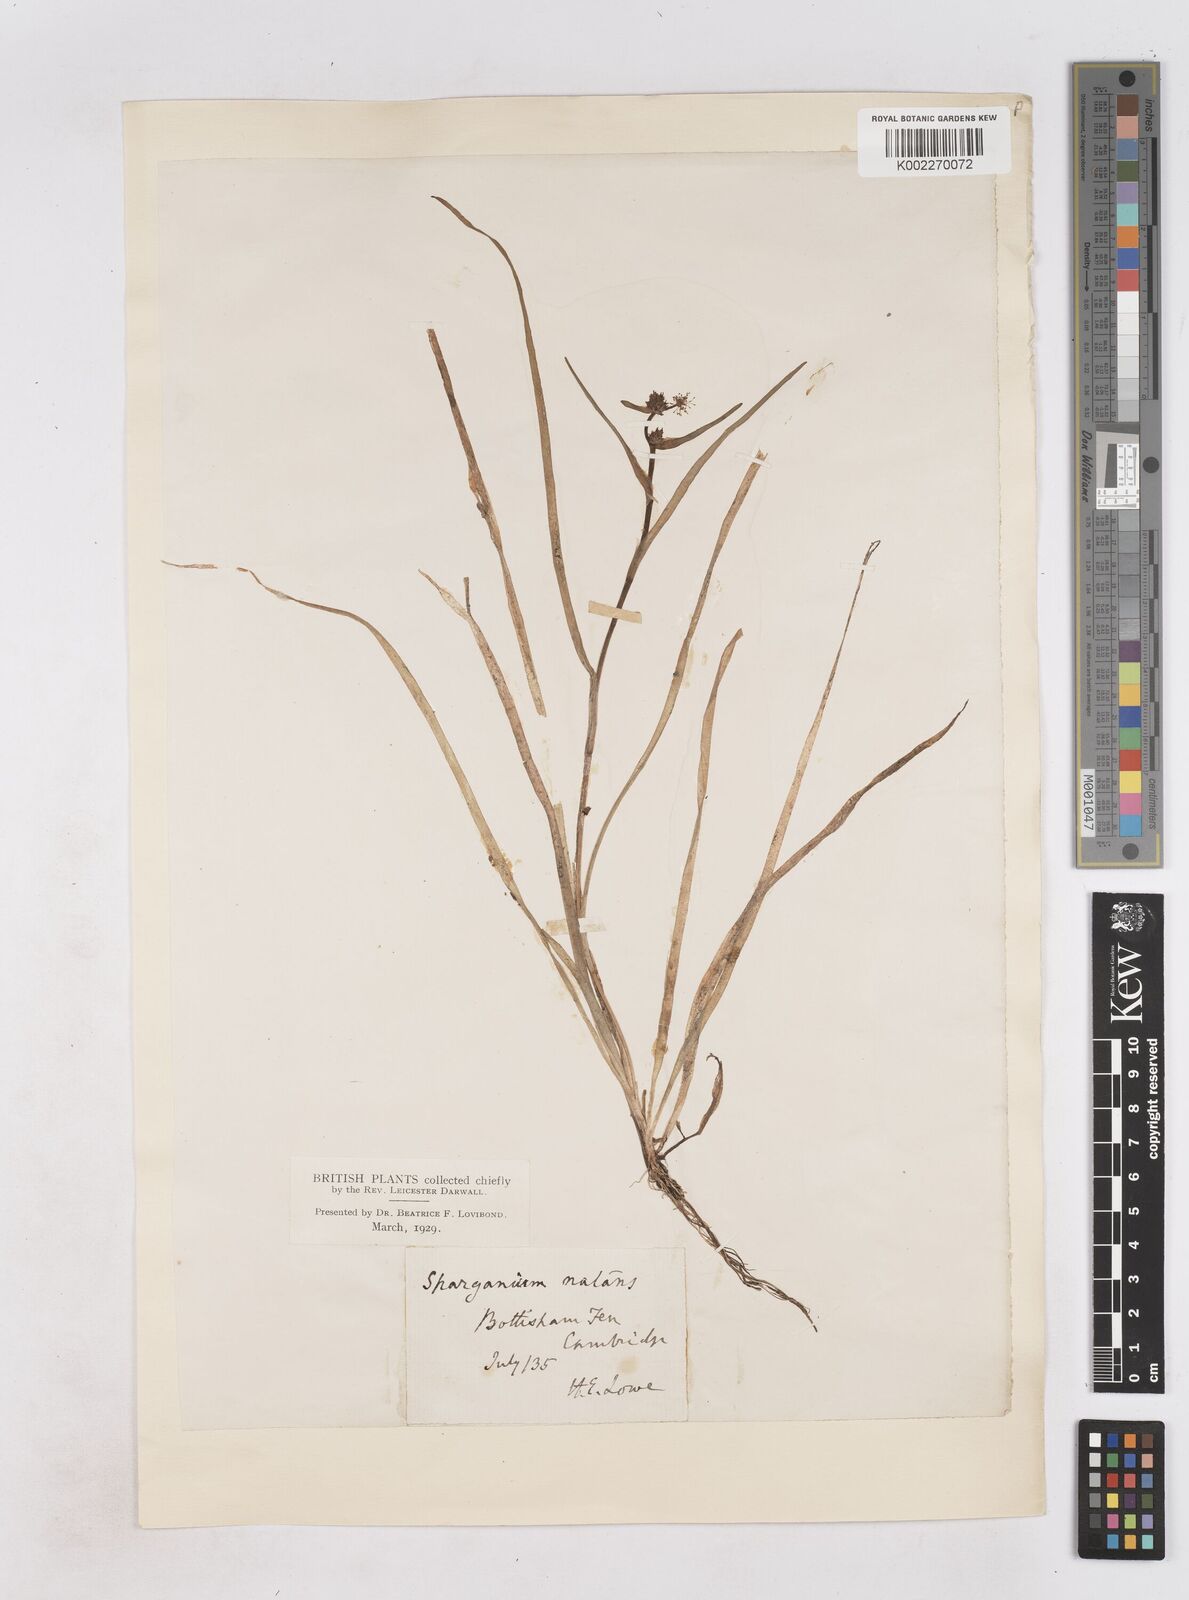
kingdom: Plantae
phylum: Tracheophyta
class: Liliopsida
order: Poales
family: Typhaceae
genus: Sparganium
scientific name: Sparganium natans
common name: Least bur-reed
